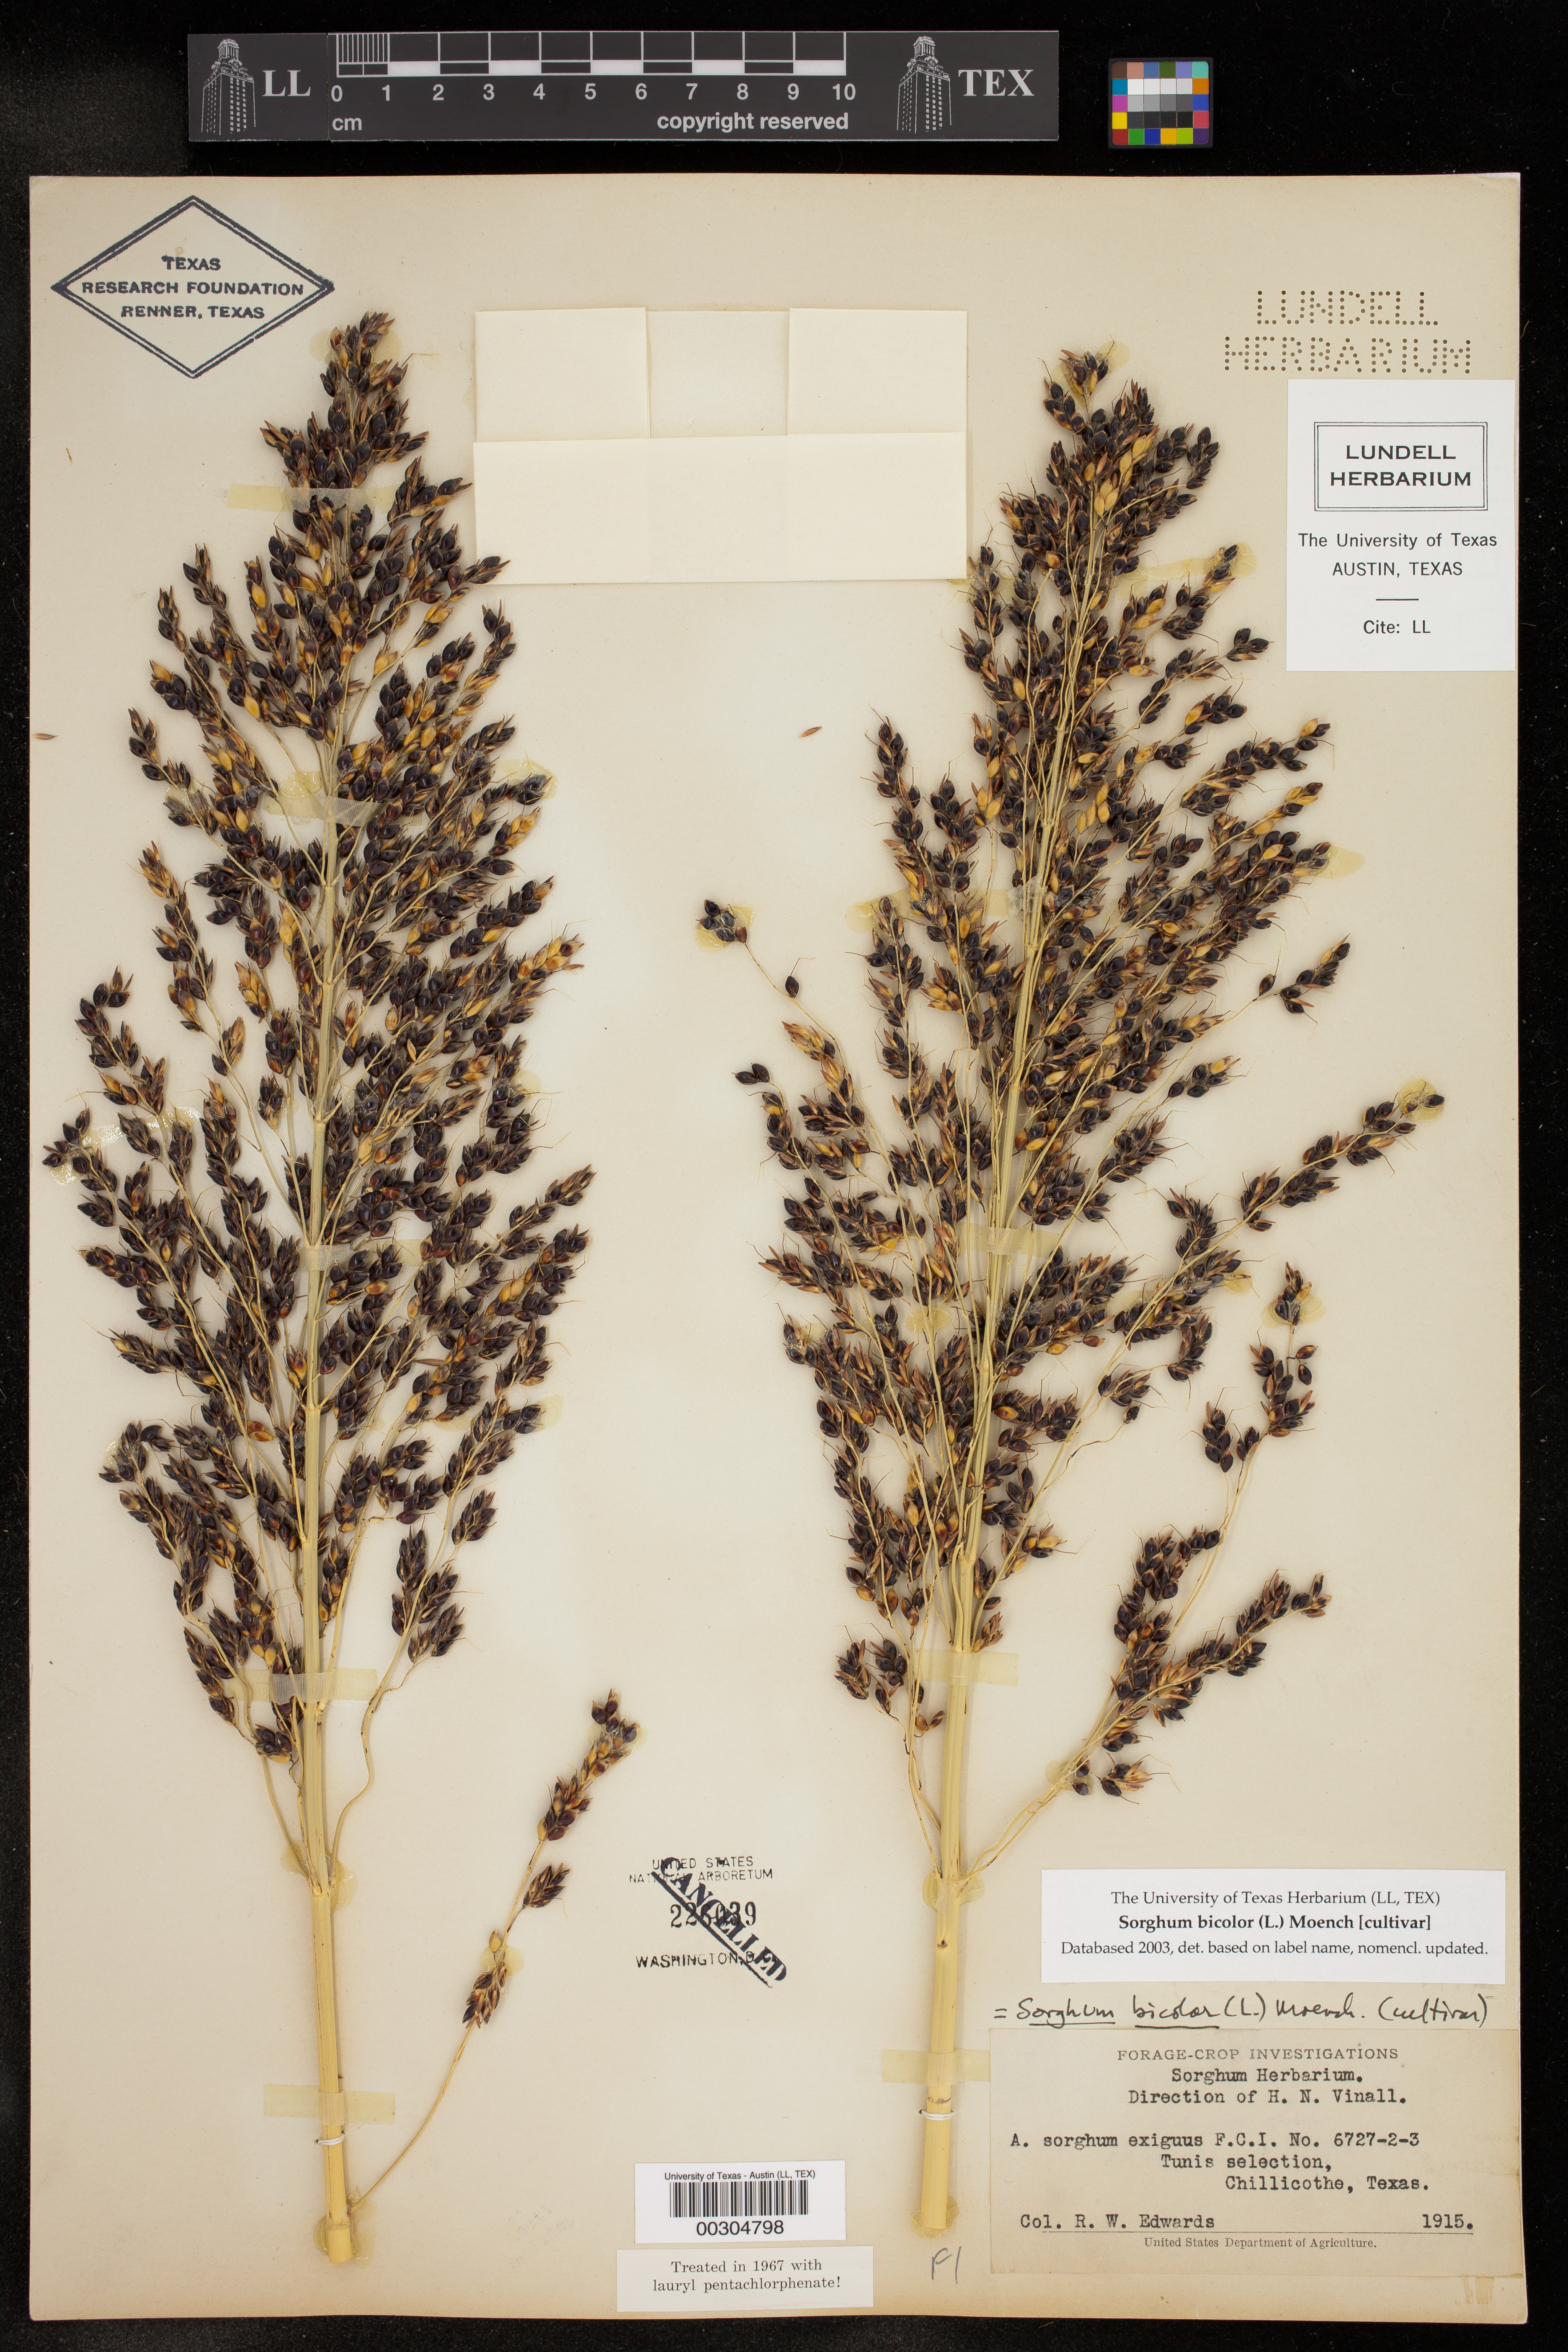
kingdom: Plantae
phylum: Tracheophyta
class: Liliopsida
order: Poales
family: Poaceae
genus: Sorghum
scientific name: Sorghum bicolor
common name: Sorghum
